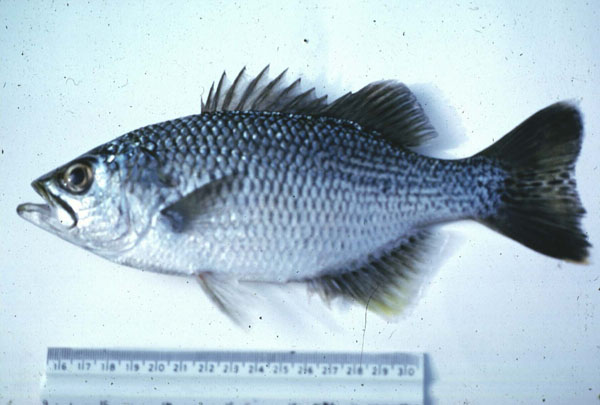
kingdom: Animalia
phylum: Chordata
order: Perciformes
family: Kuhliidae
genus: Kuhlia
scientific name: Kuhlia rupestris
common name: Rock flagtail
